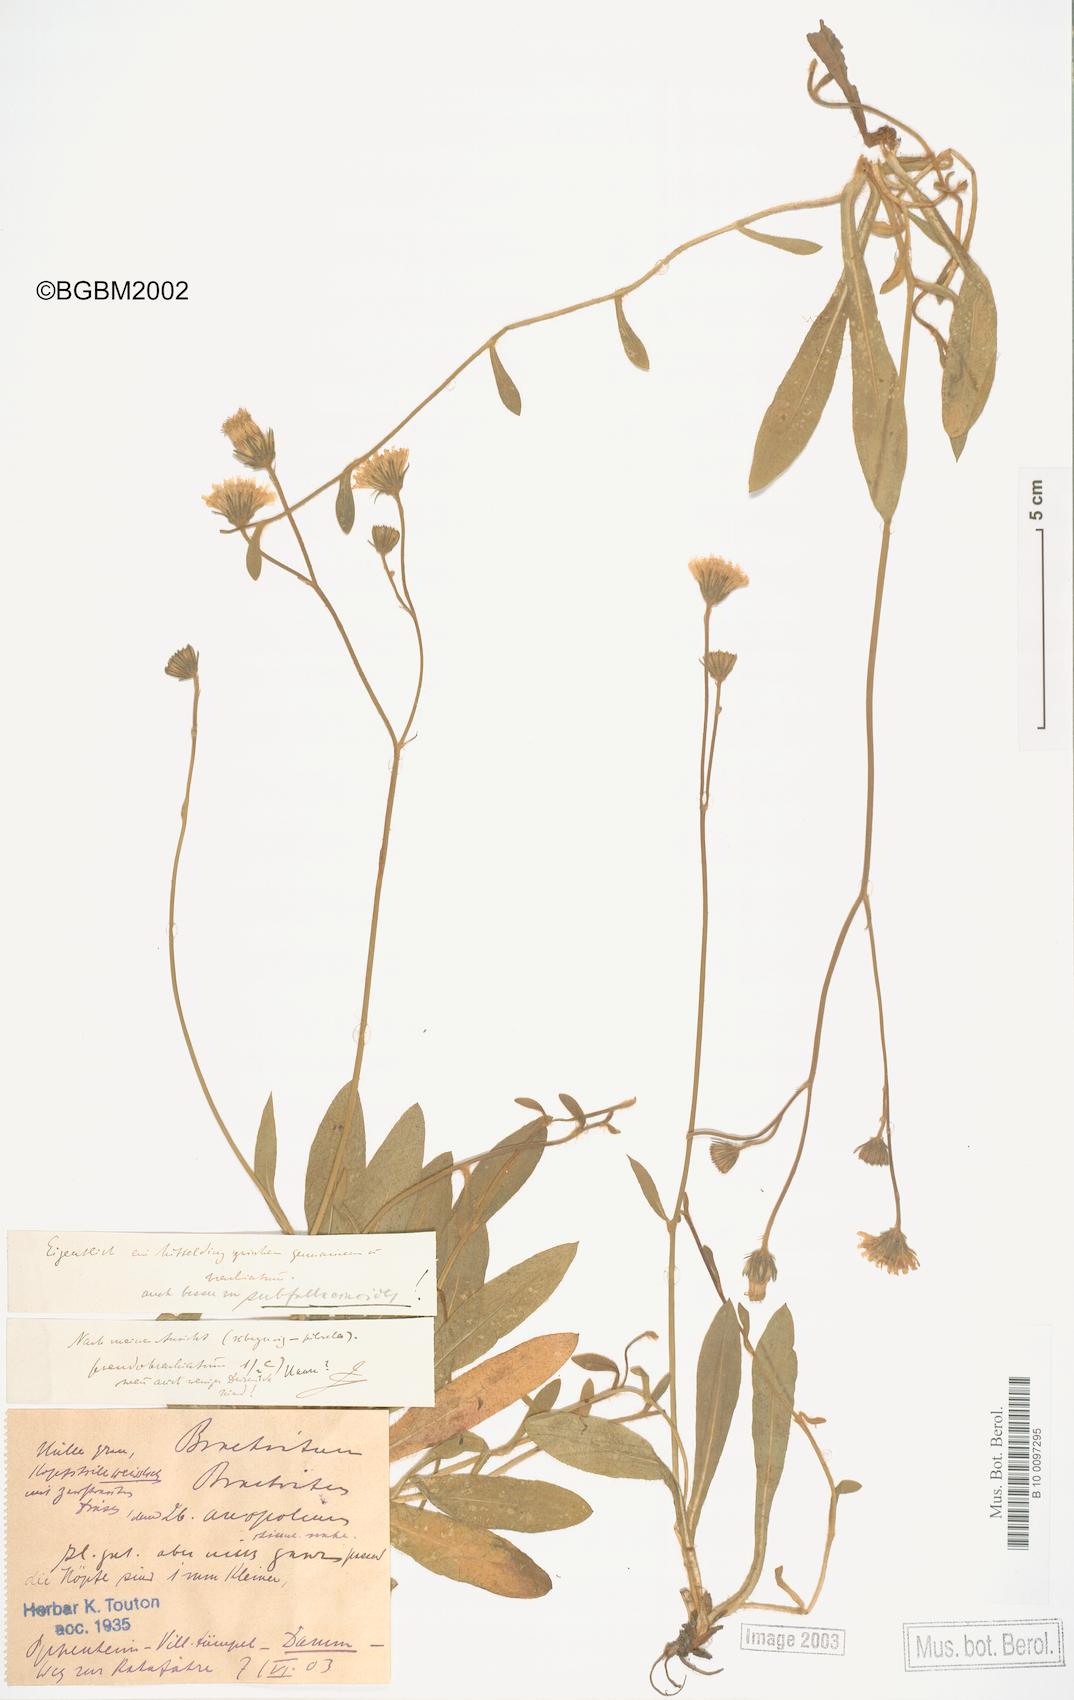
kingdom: Plantae
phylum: Tracheophyta
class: Magnoliopsida
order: Asterales
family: Asteraceae
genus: Pilosella
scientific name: Pilosella acutifolia
